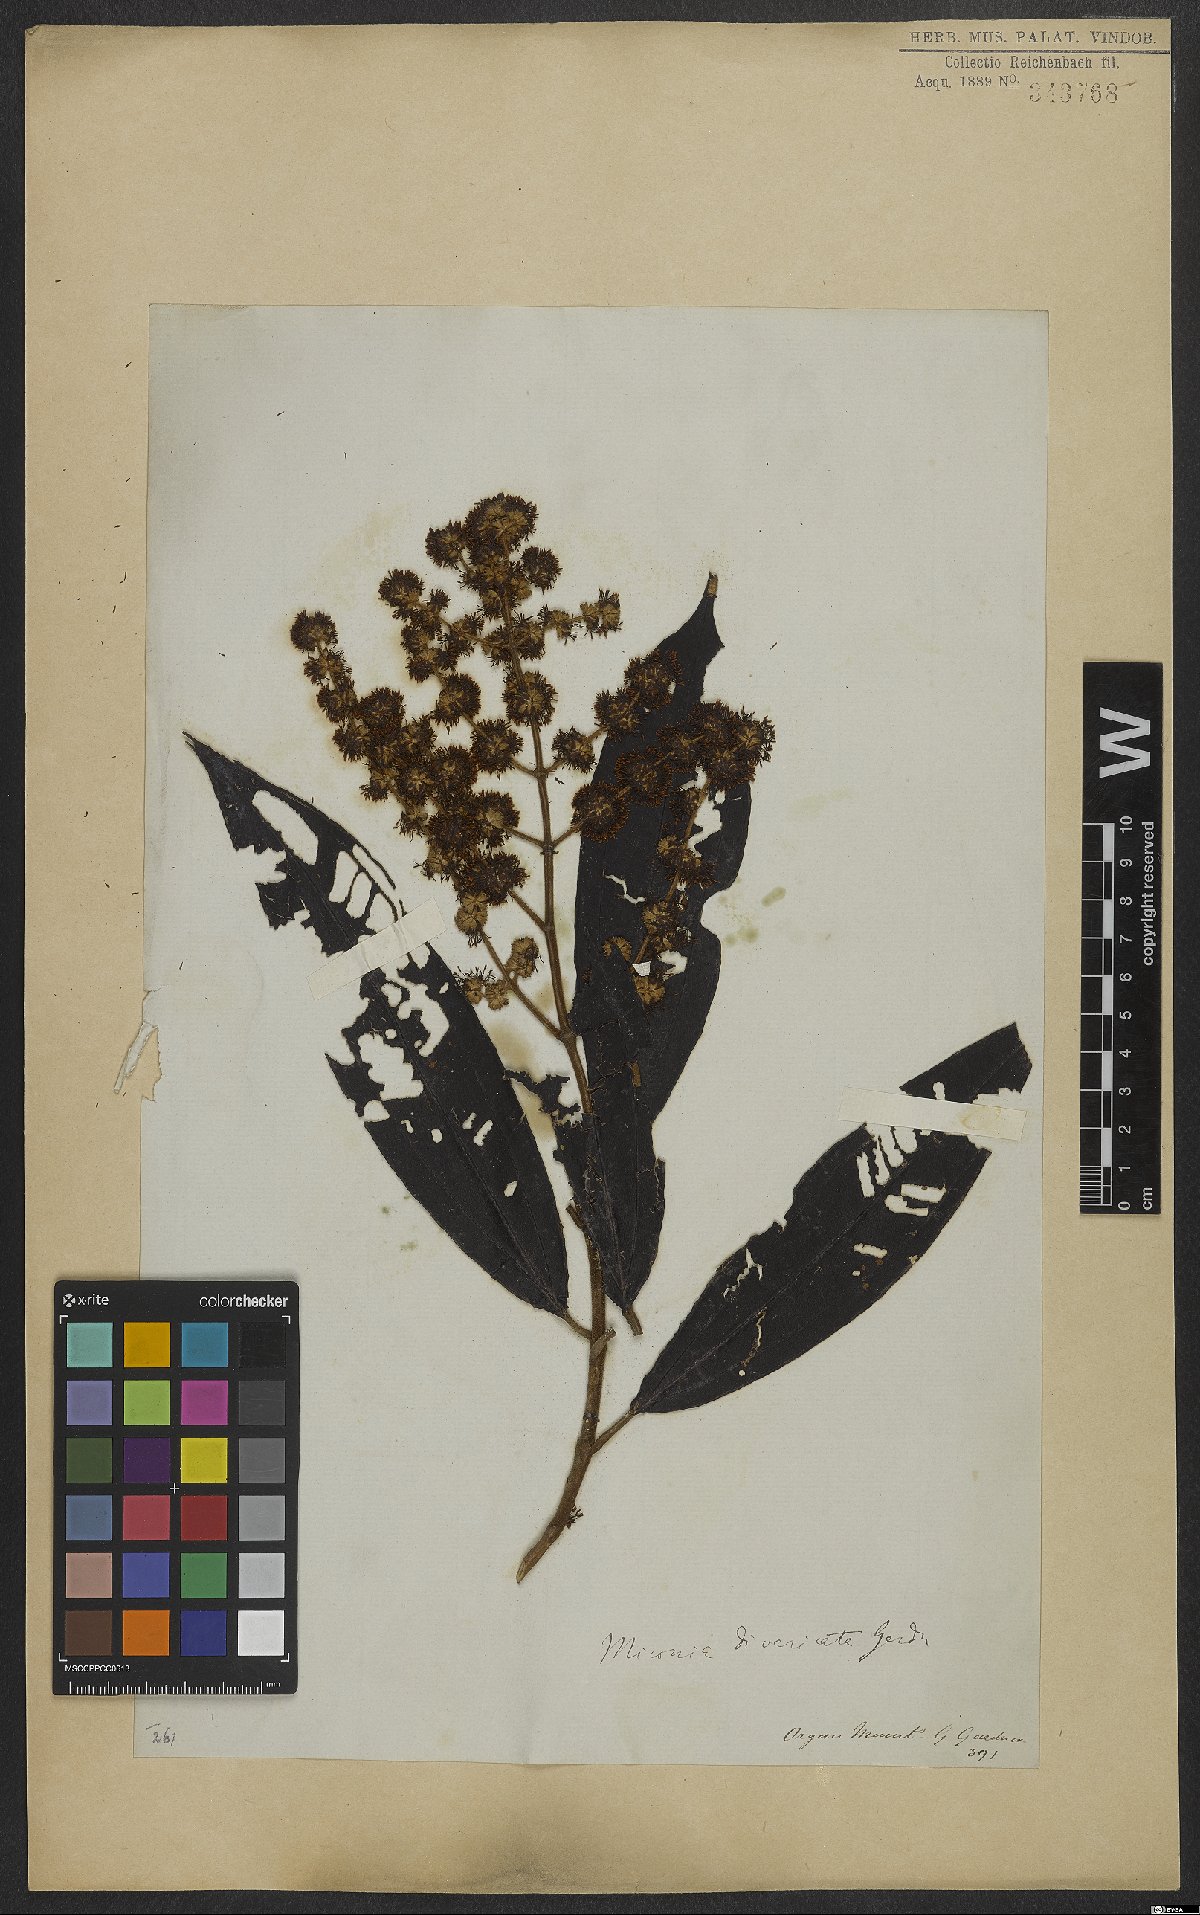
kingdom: Plantae
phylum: Tracheophyta
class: Magnoliopsida
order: Myrtales
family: Melastomataceae
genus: Miconia
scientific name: Miconia fasciculata
